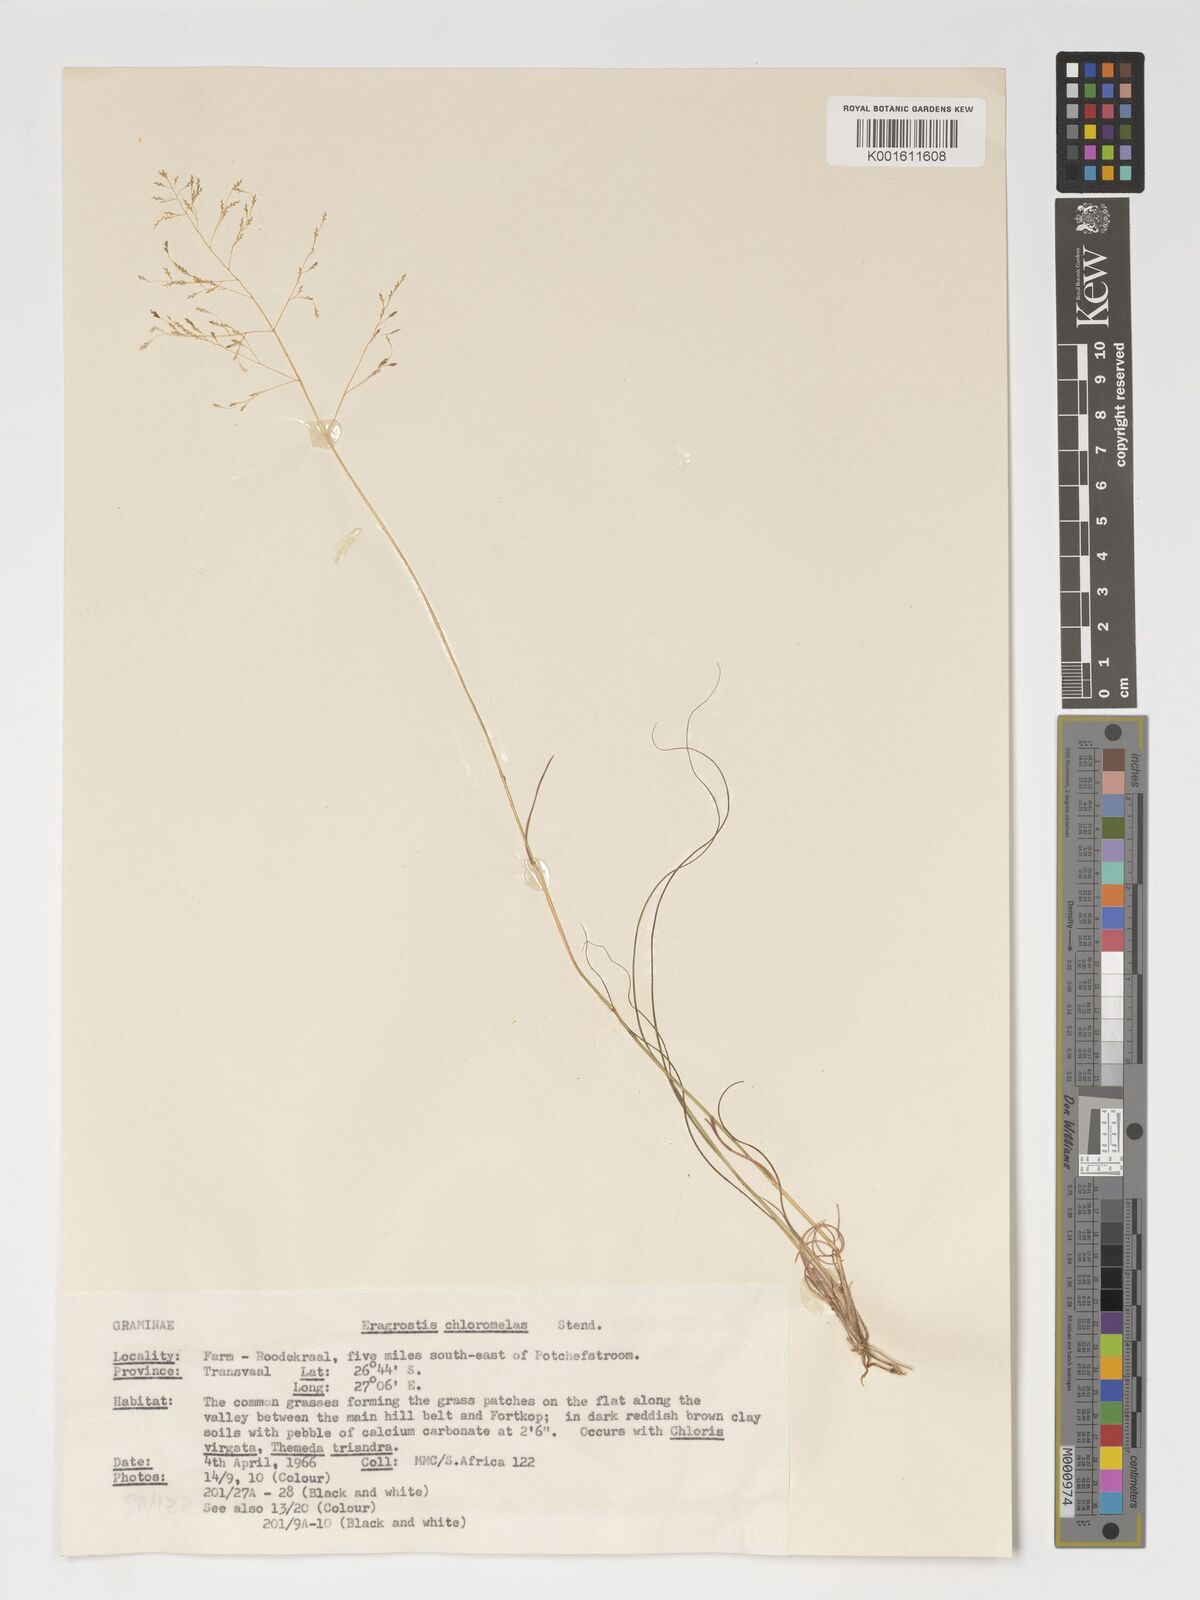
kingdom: Plantae
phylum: Tracheophyta
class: Liliopsida
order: Poales
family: Poaceae
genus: Eragrostis
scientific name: Eragrostis curvula
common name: African love-grass
